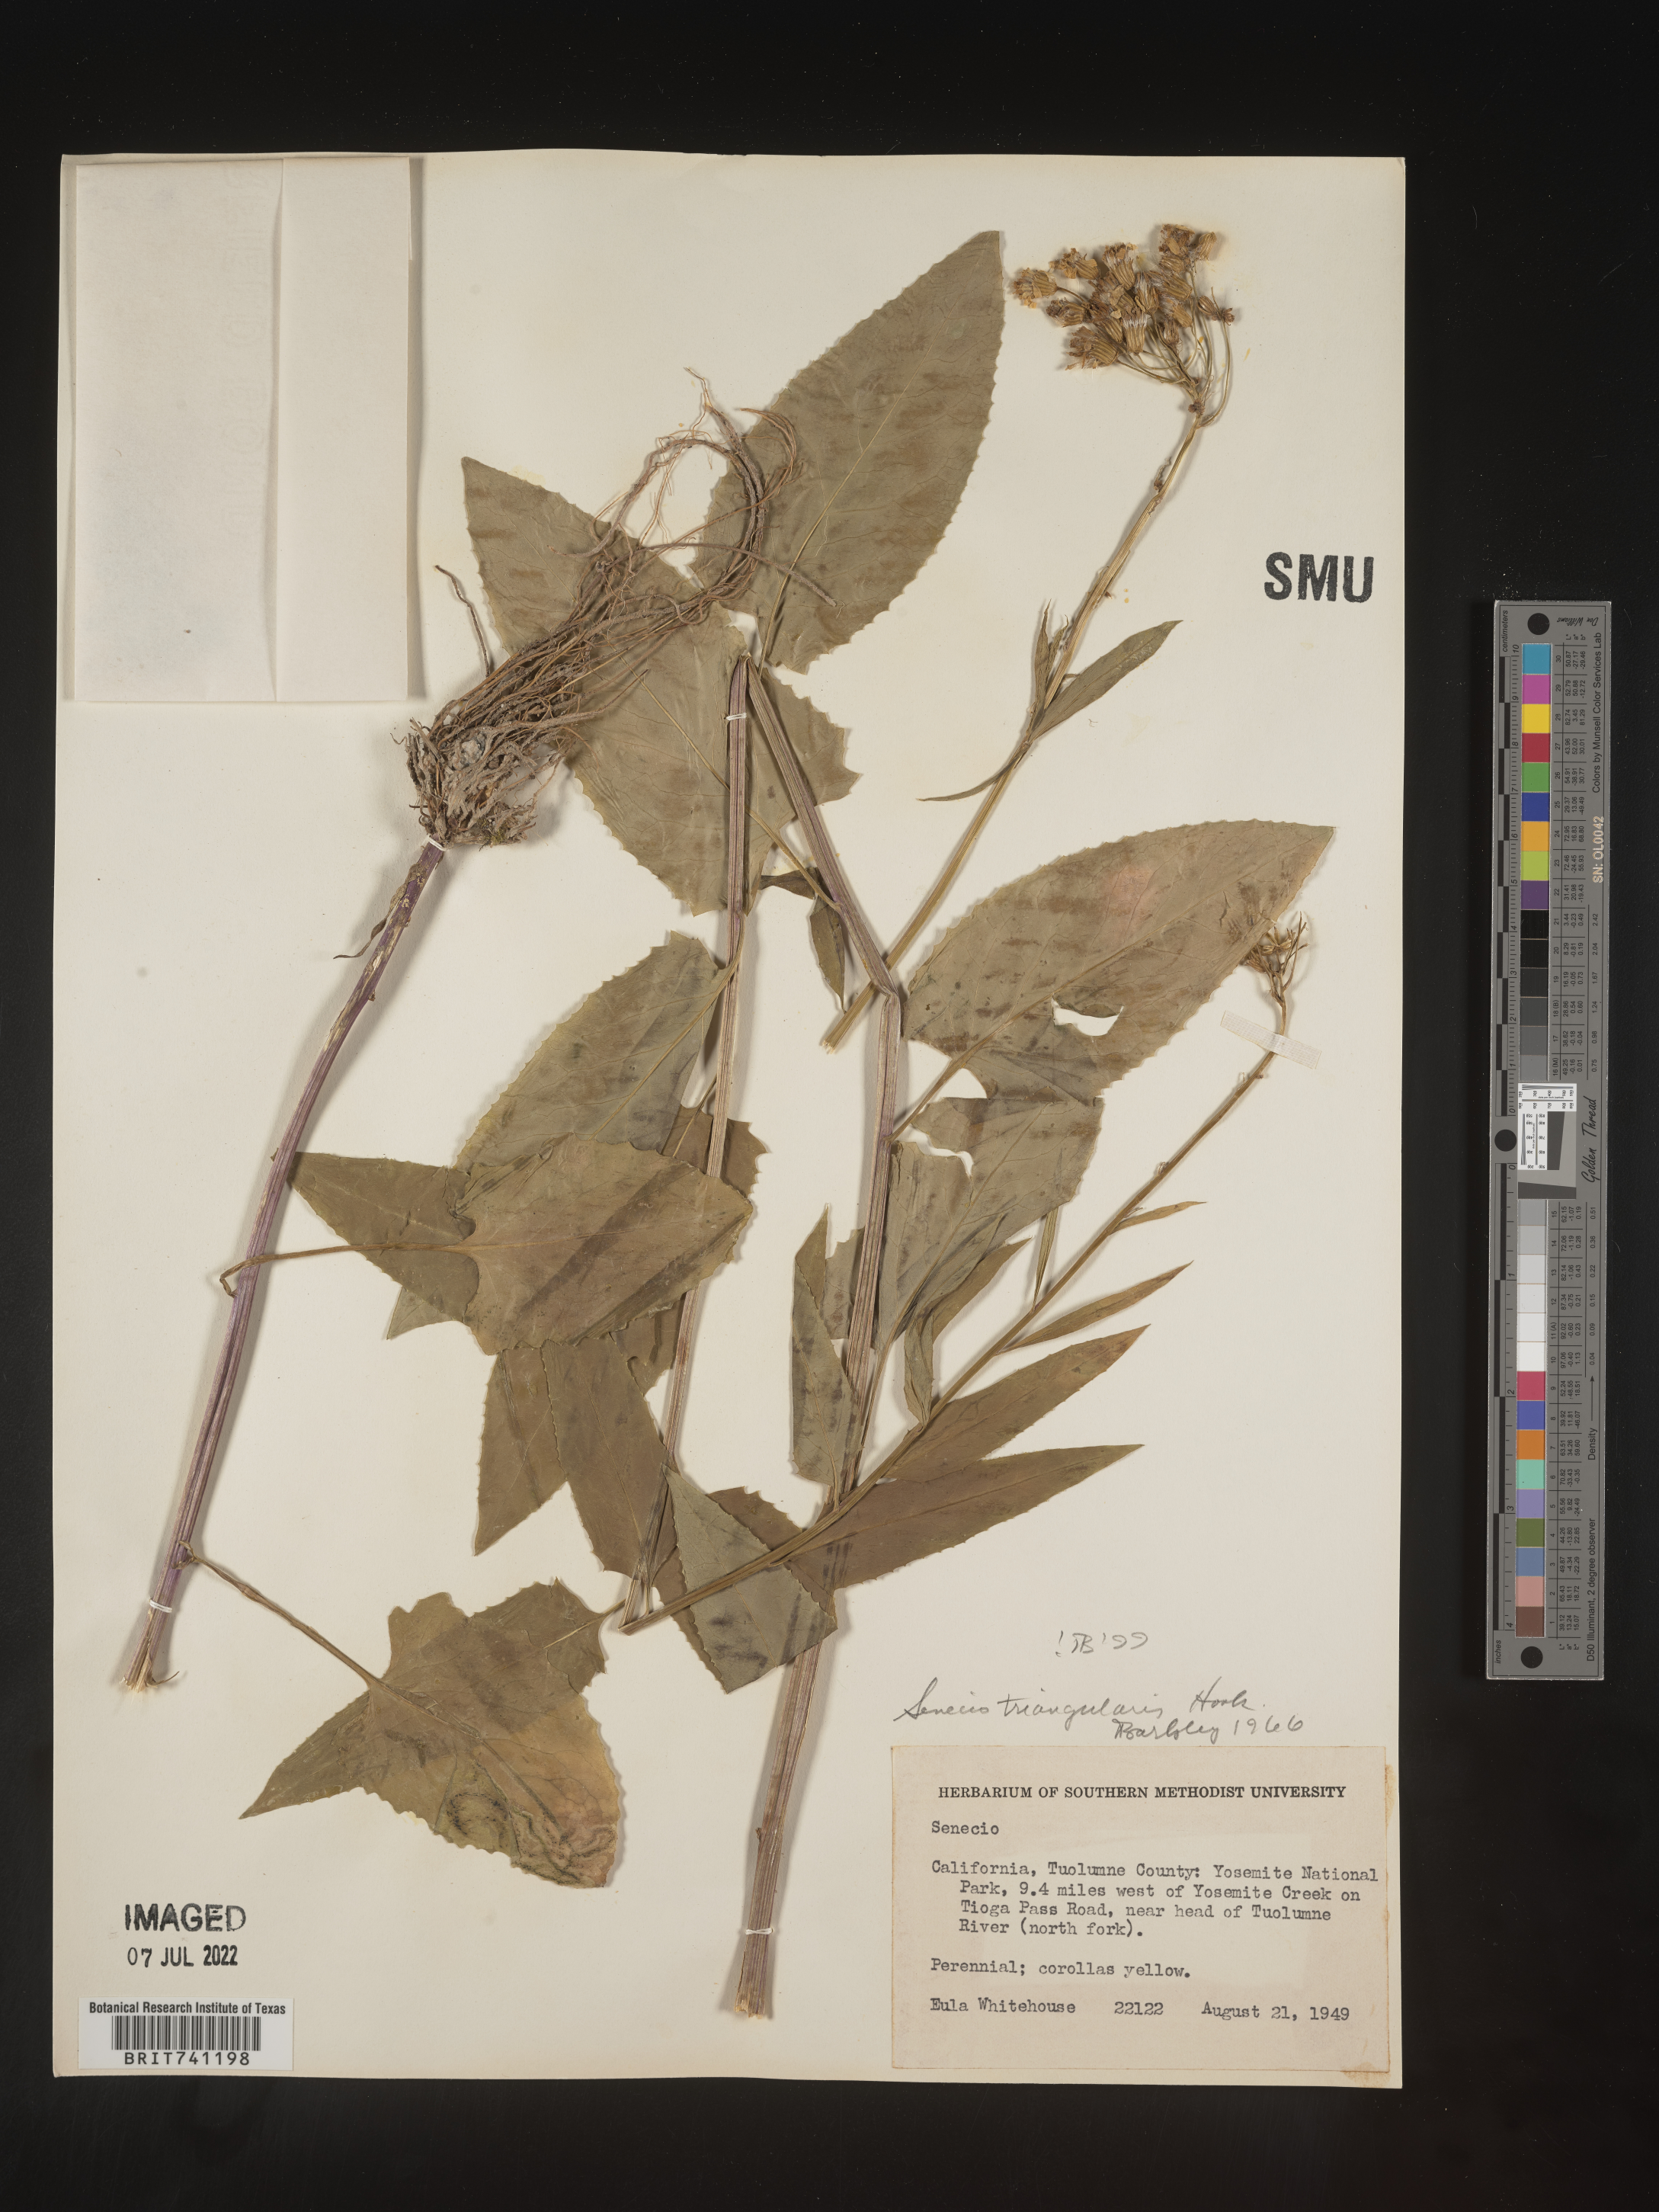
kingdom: Plantae
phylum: Tracheophyta
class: Magnoliopsida
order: Asterales
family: Asteraceae
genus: Senecio
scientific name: Senecio triangularis
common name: Arrowleaf butterweed
